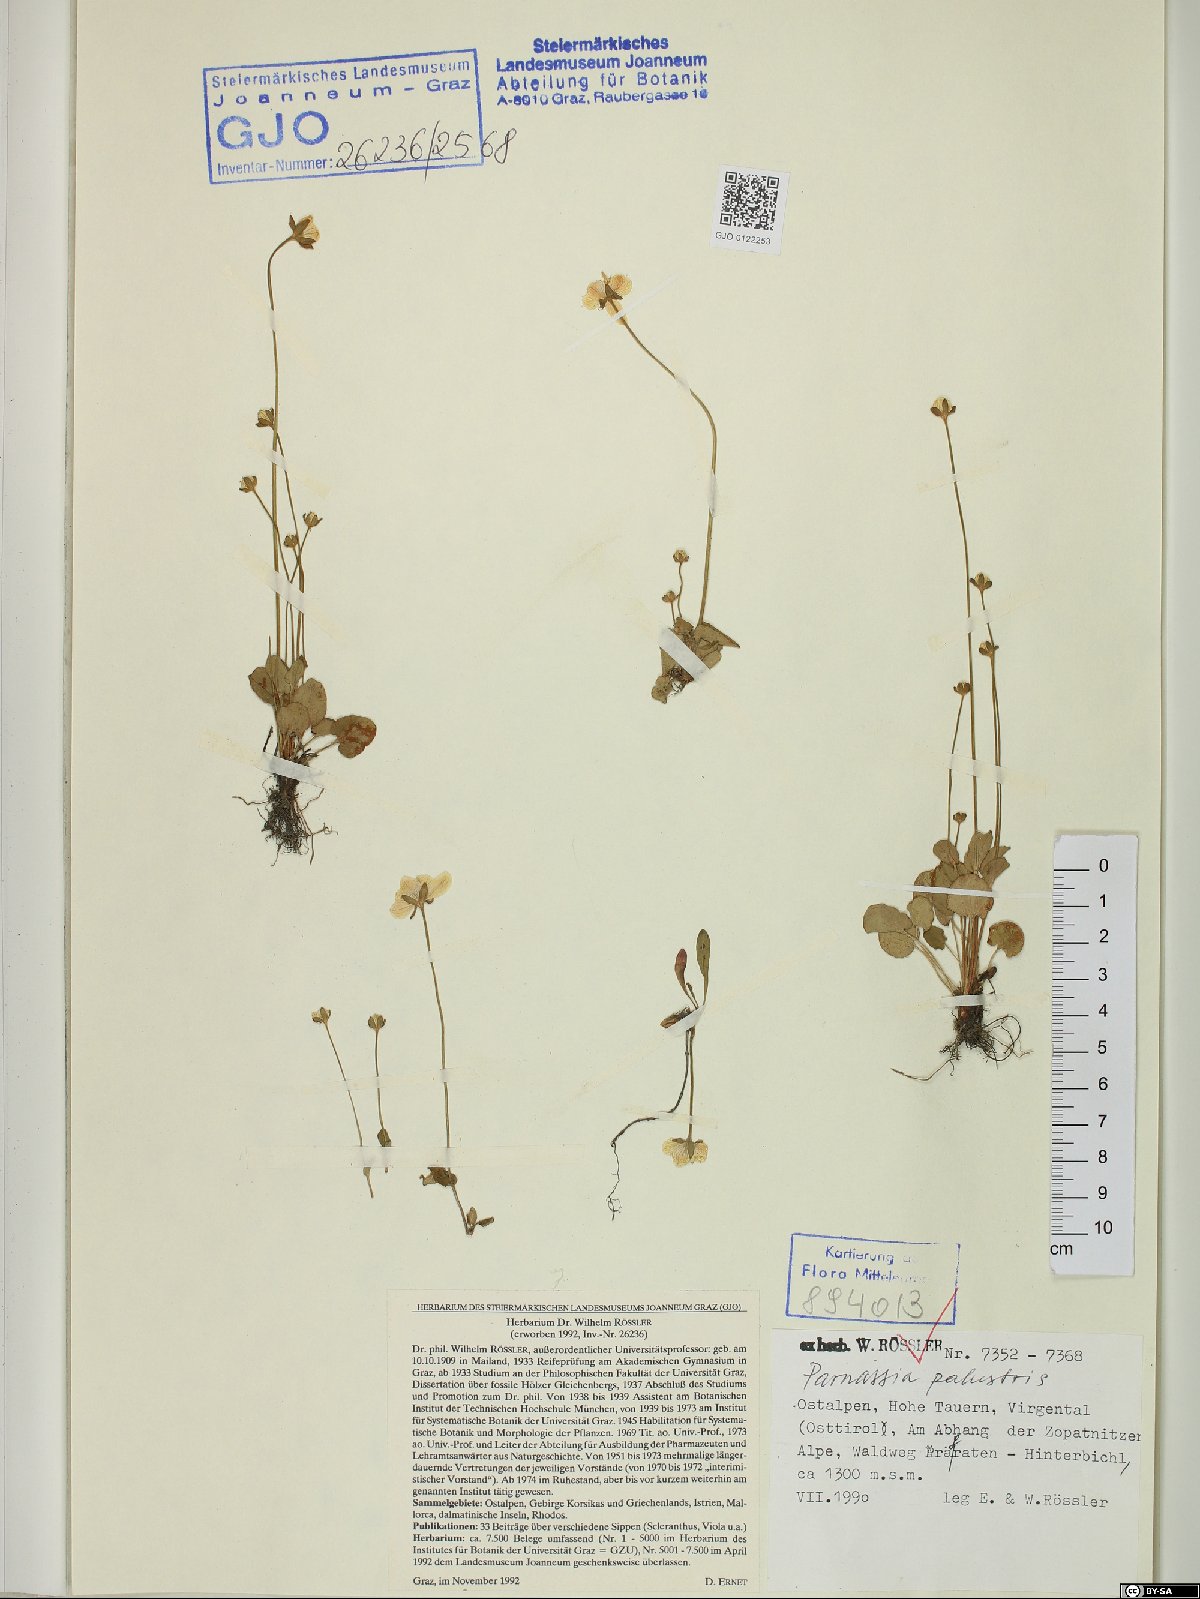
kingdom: Plantae
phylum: Tracheophyta
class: Magnoliopsida
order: Celastrales
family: Parnassiaceae
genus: Parnassia
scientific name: Parnassia palustris
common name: Grass-of-parnassus
